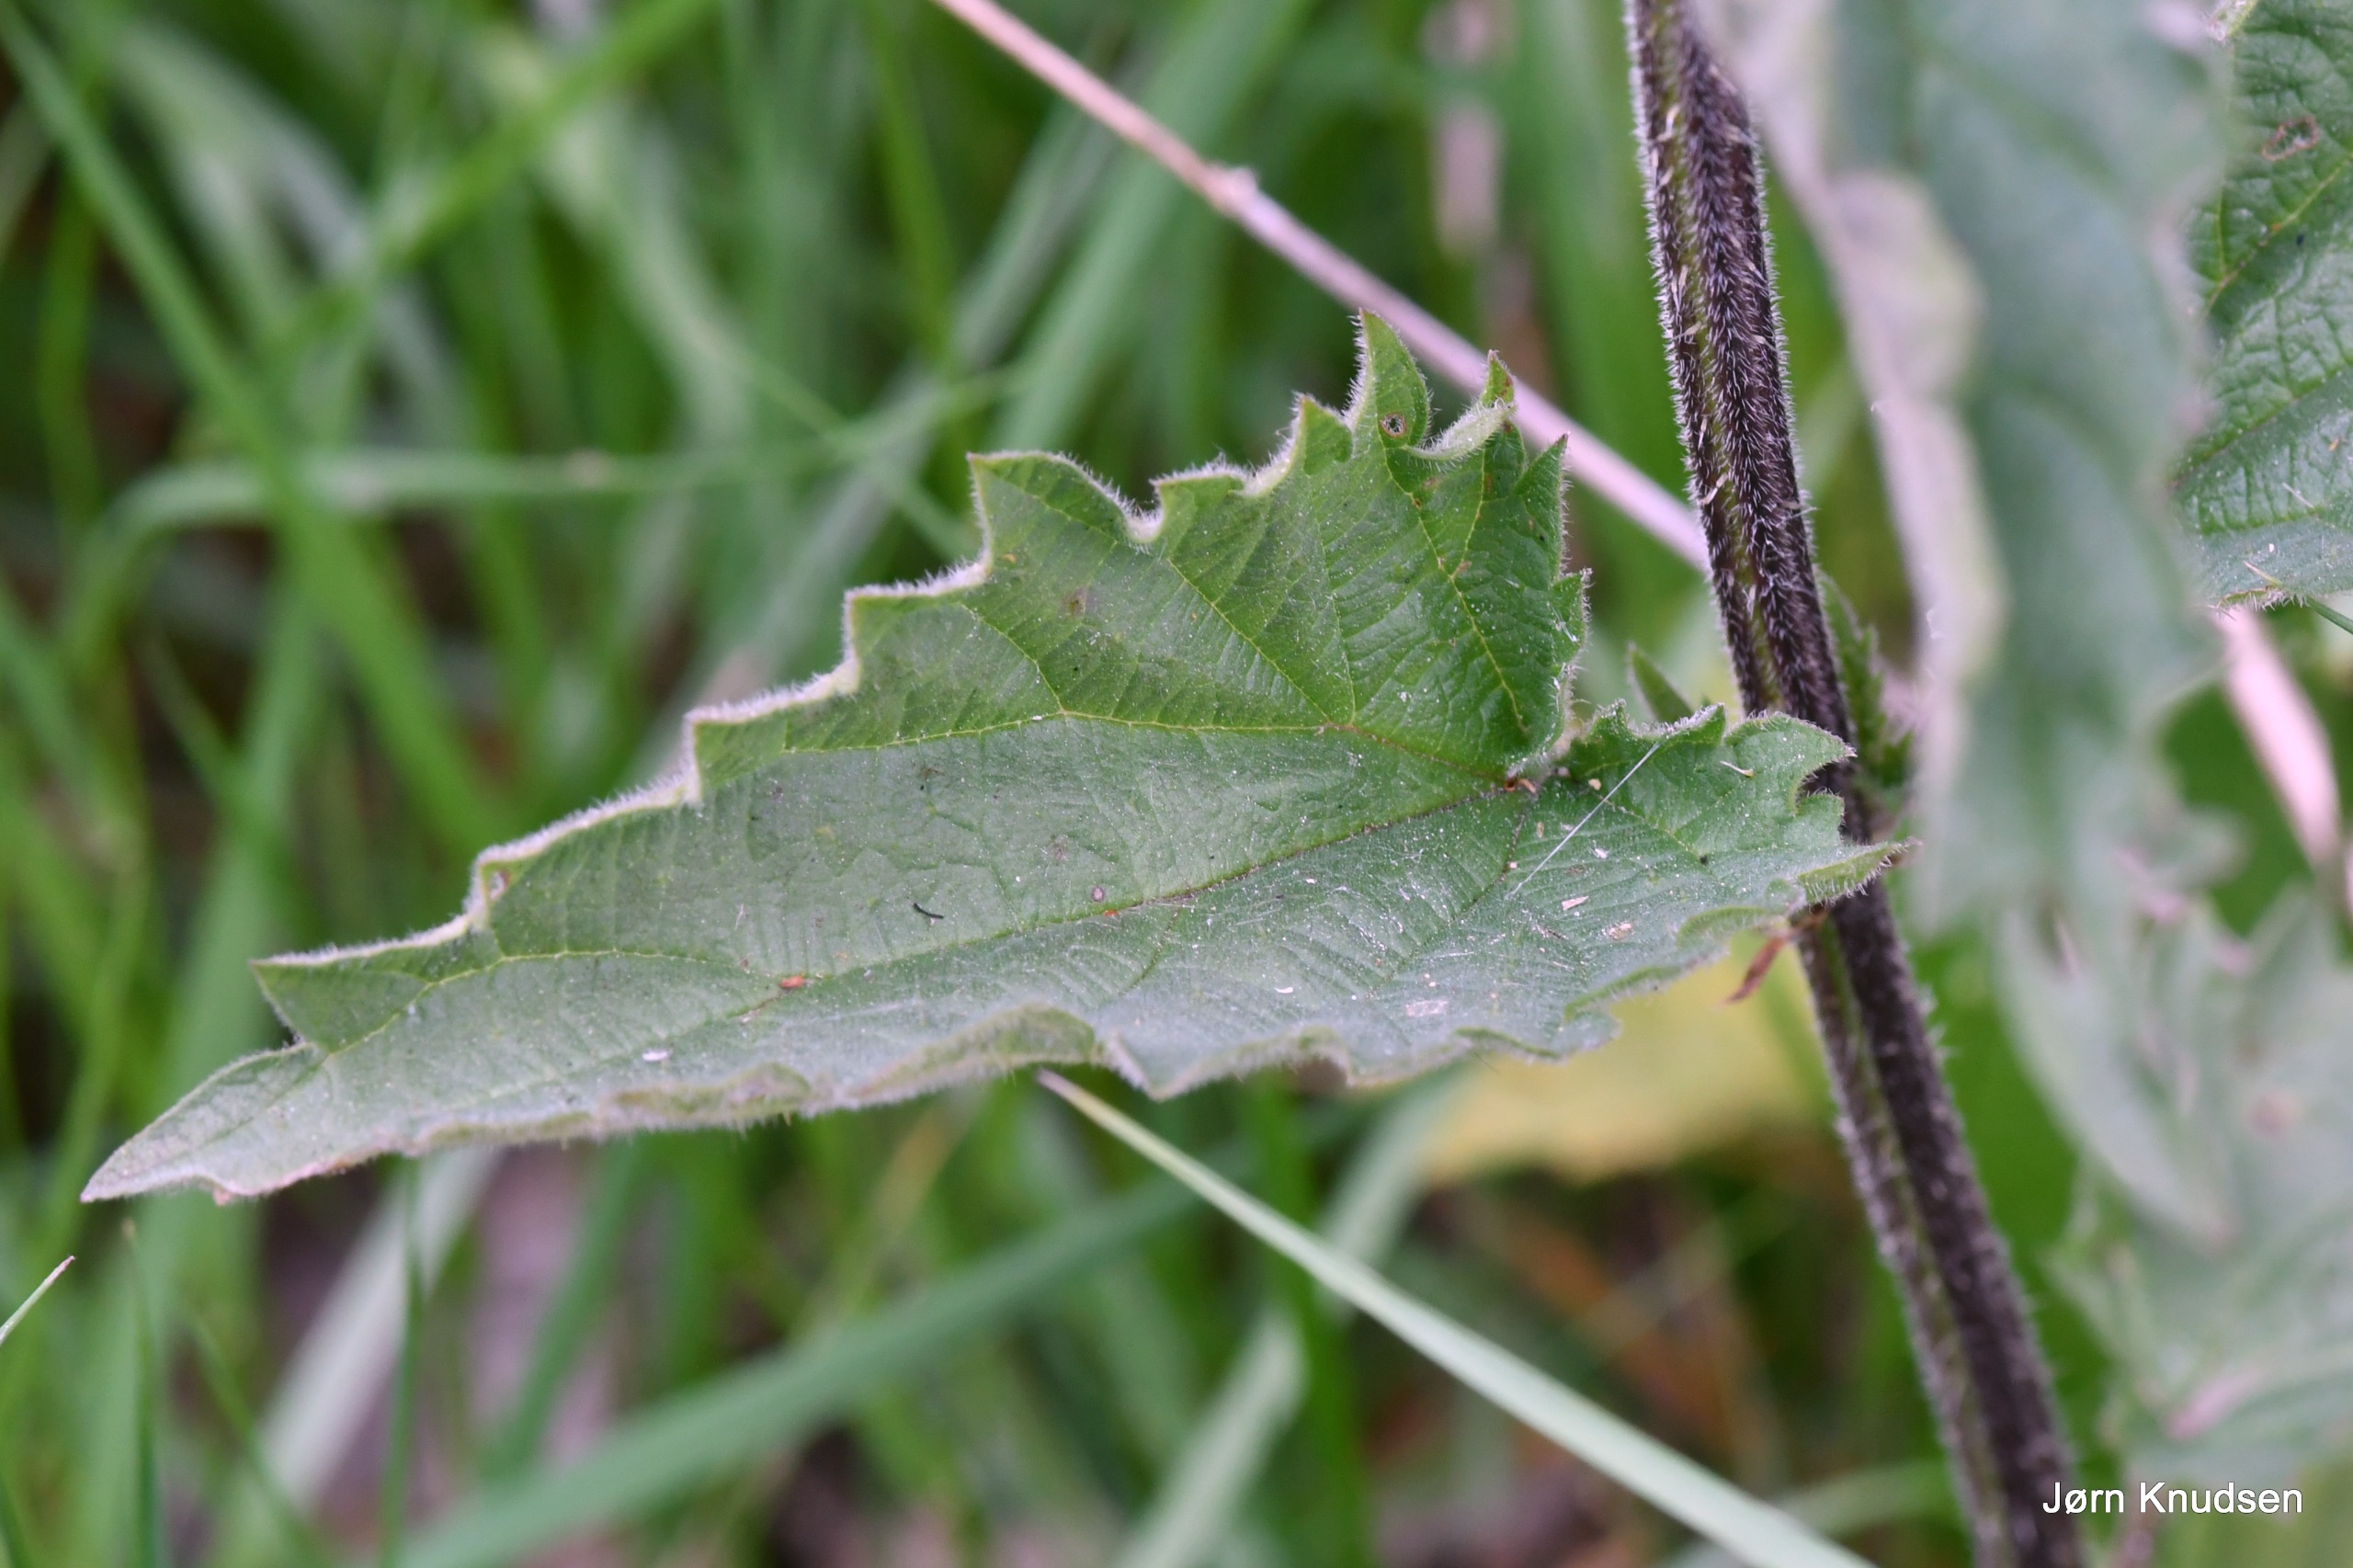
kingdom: Plantae
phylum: Tracheophyta
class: Magnoliopsida
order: Rosales
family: Urticaceae
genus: Urtica
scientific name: Urtica dioica
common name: Stor nælde
